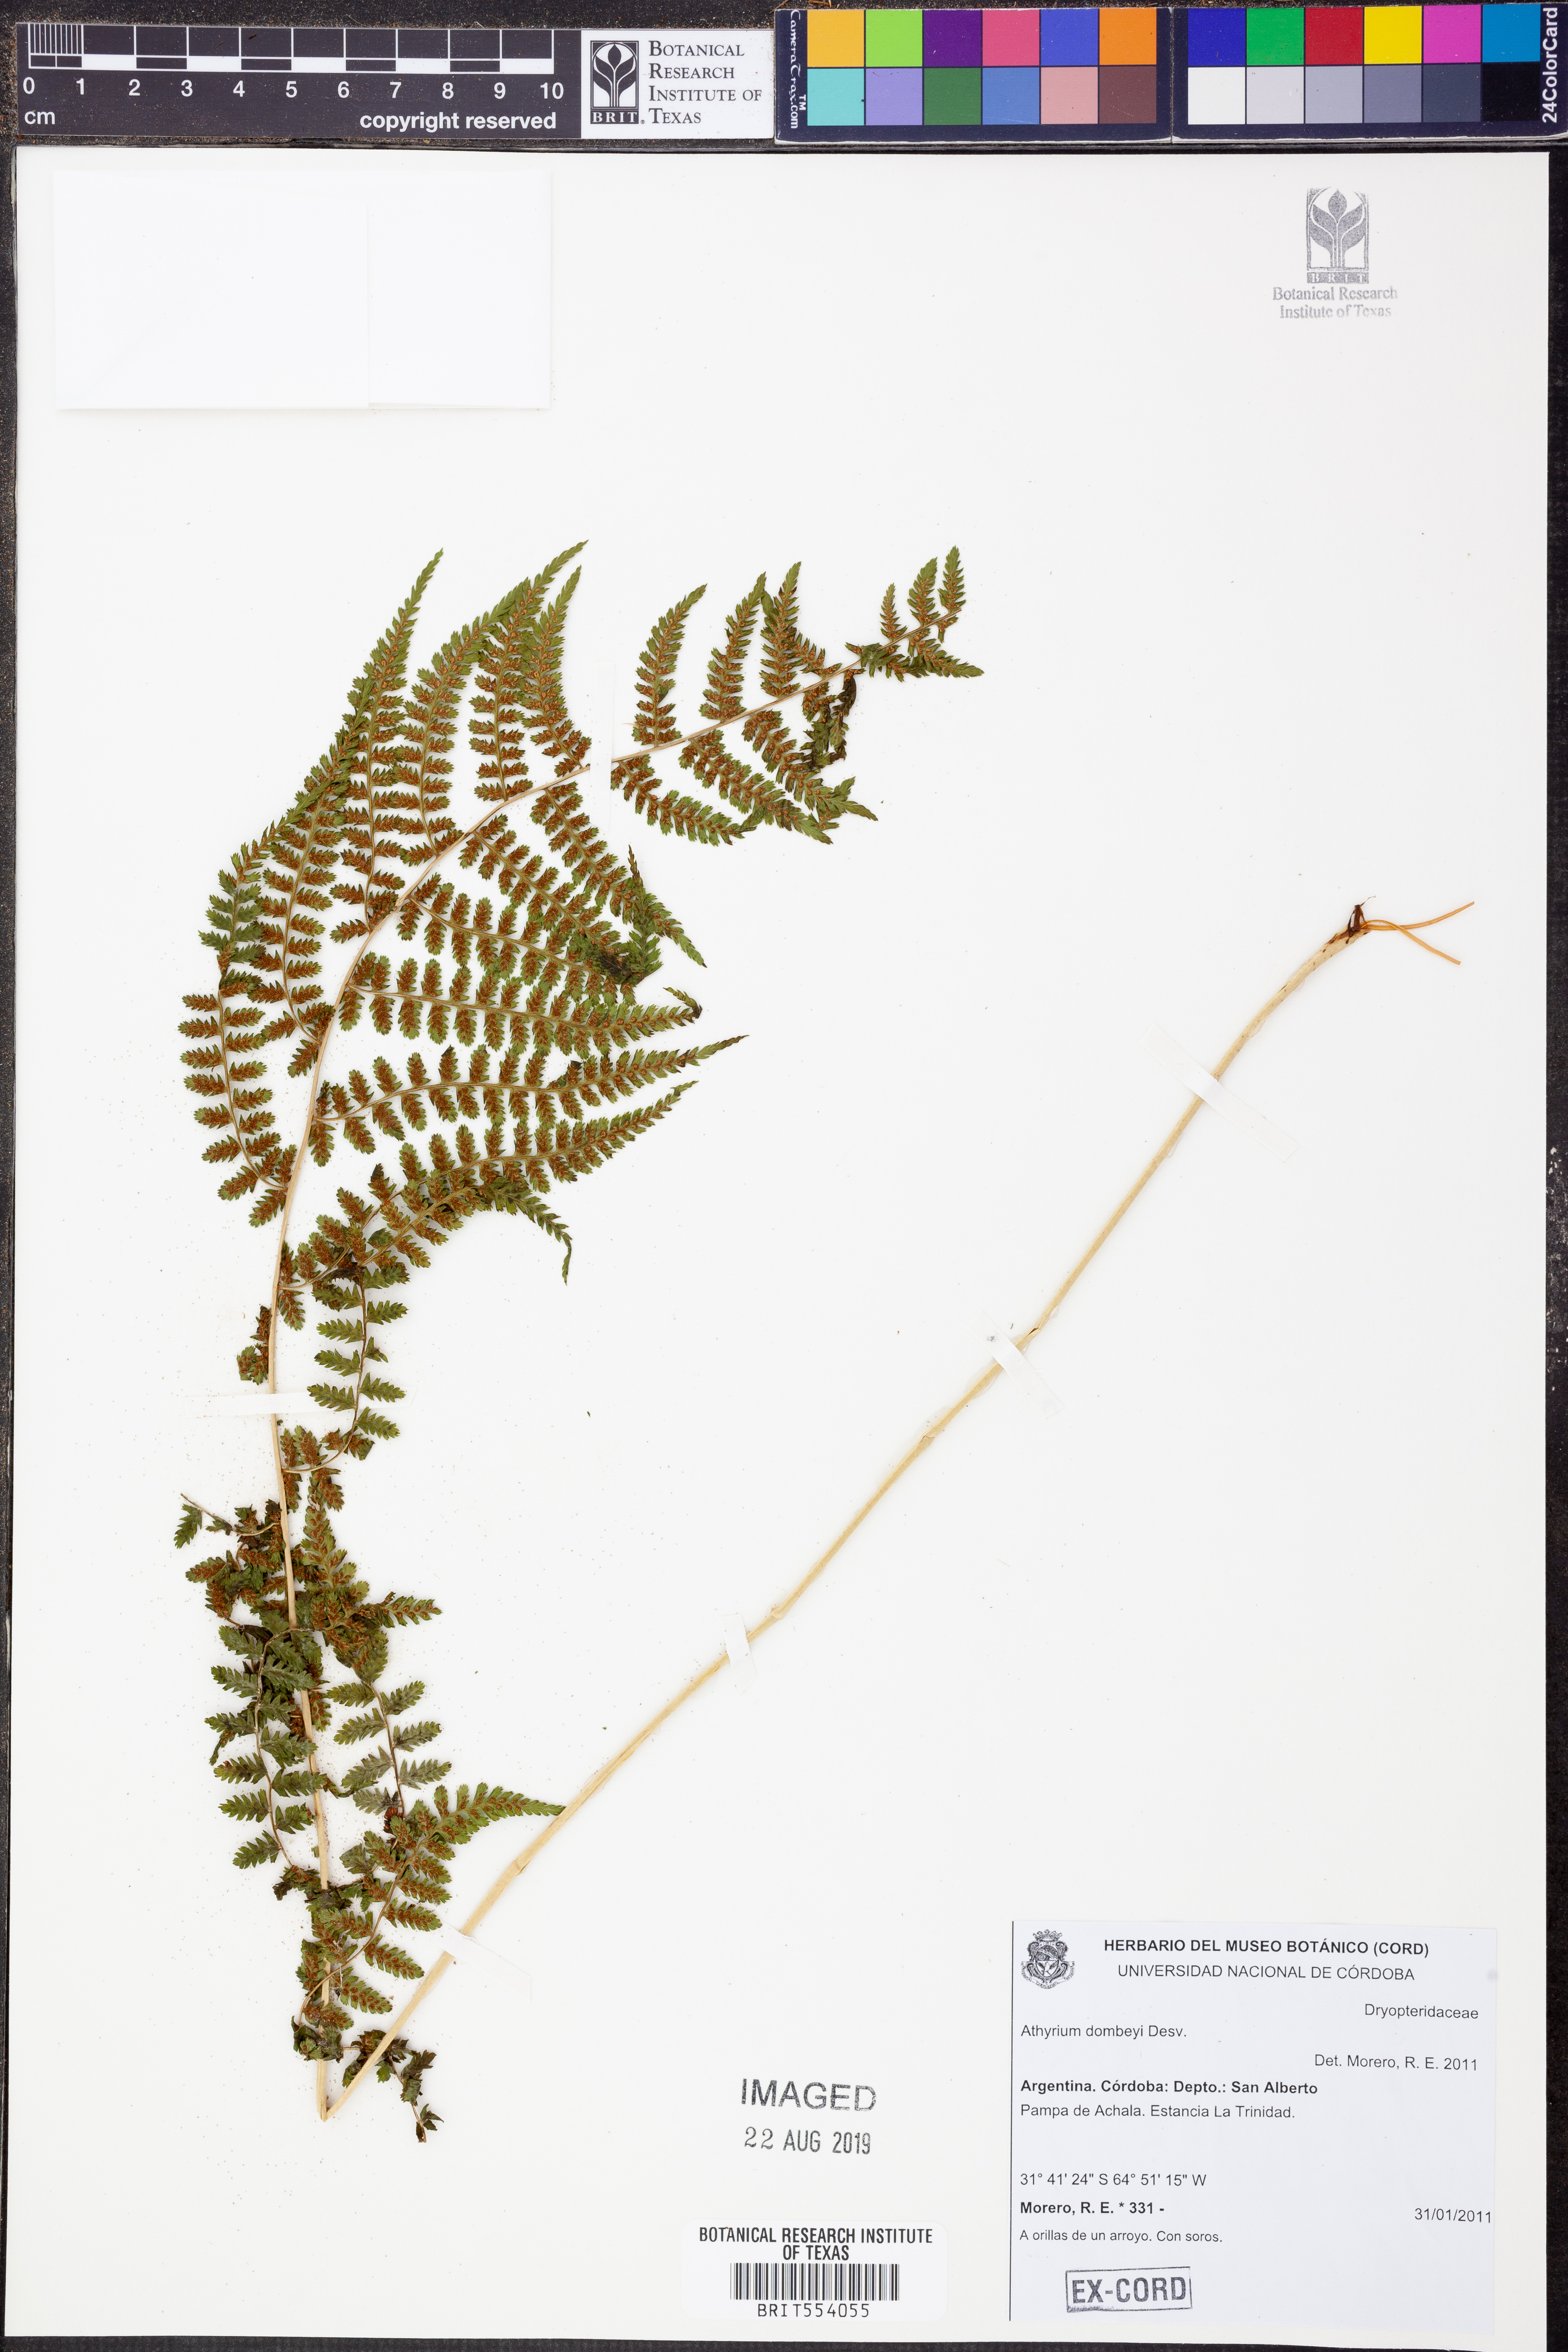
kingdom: Plantae
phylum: Tracheophyta
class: Polypodiopsida
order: Polypodiales
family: Athyriaceae
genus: Athyrium
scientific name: Athyrium dombeyi
